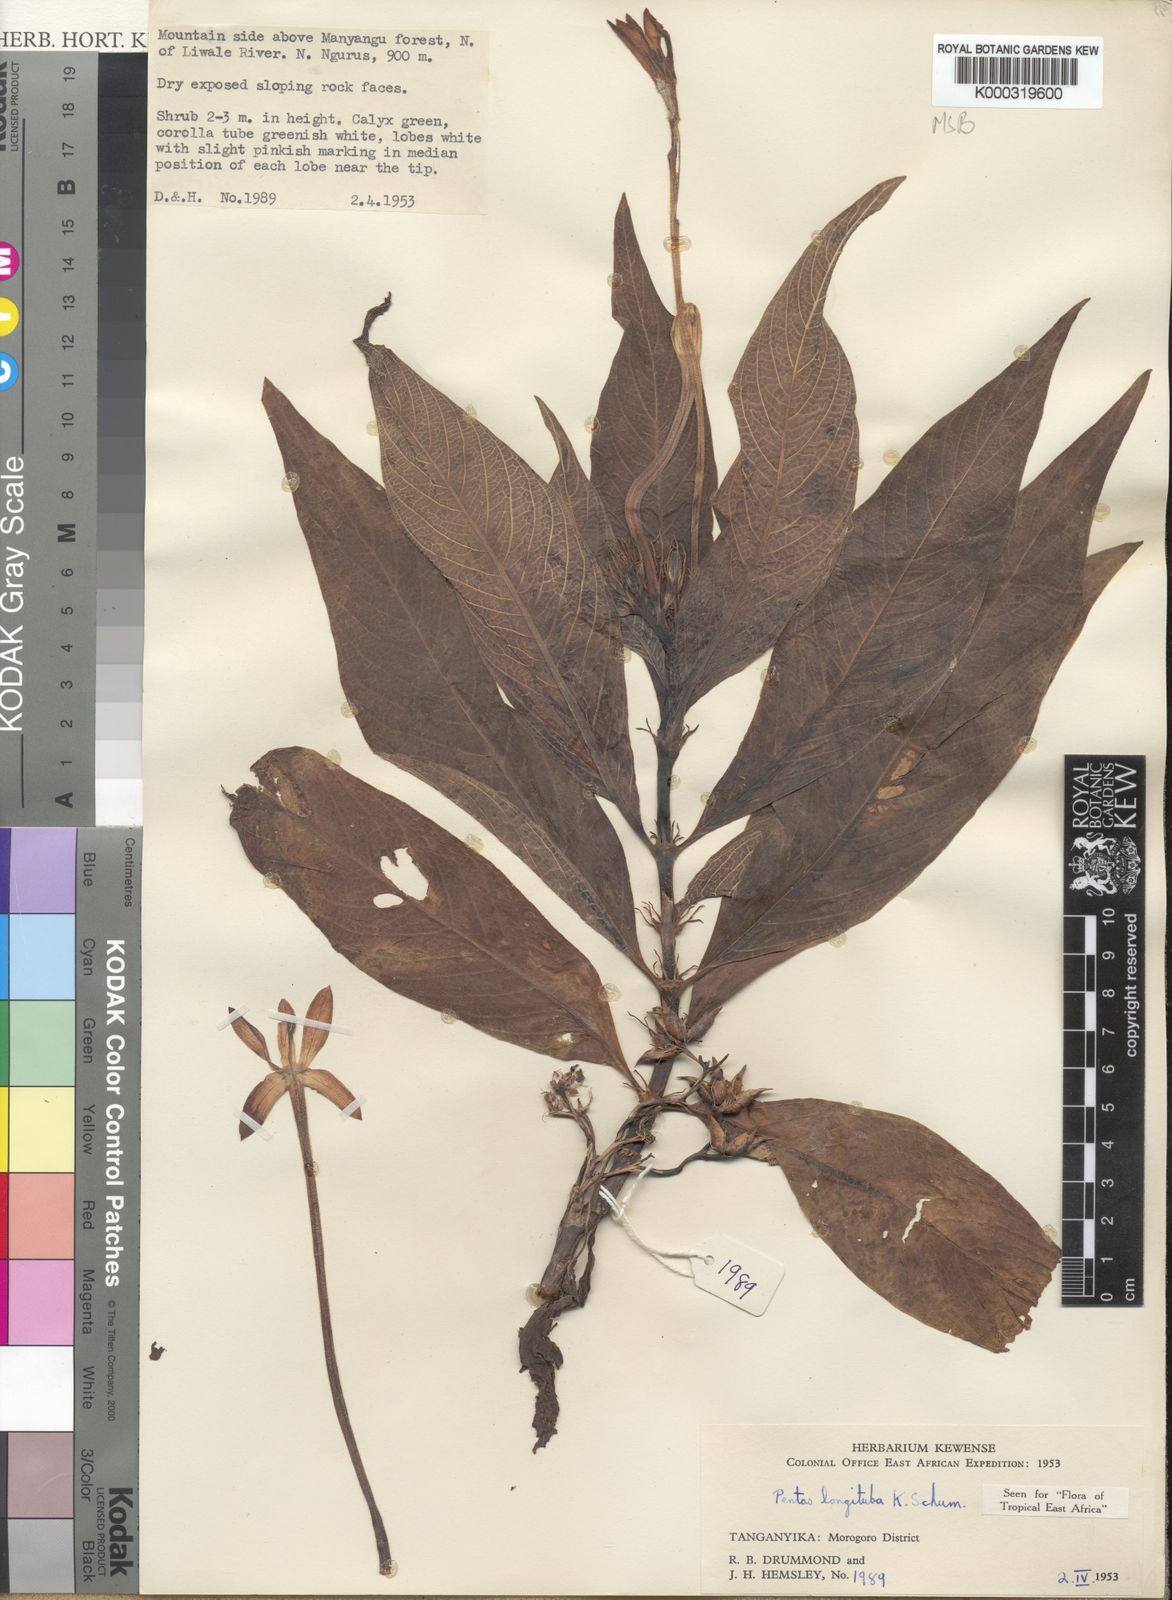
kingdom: Plantae
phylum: Tracheophyta
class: Magnoliopsida
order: Gentianales
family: Rubiaceae
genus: Pentas
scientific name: Pentas
